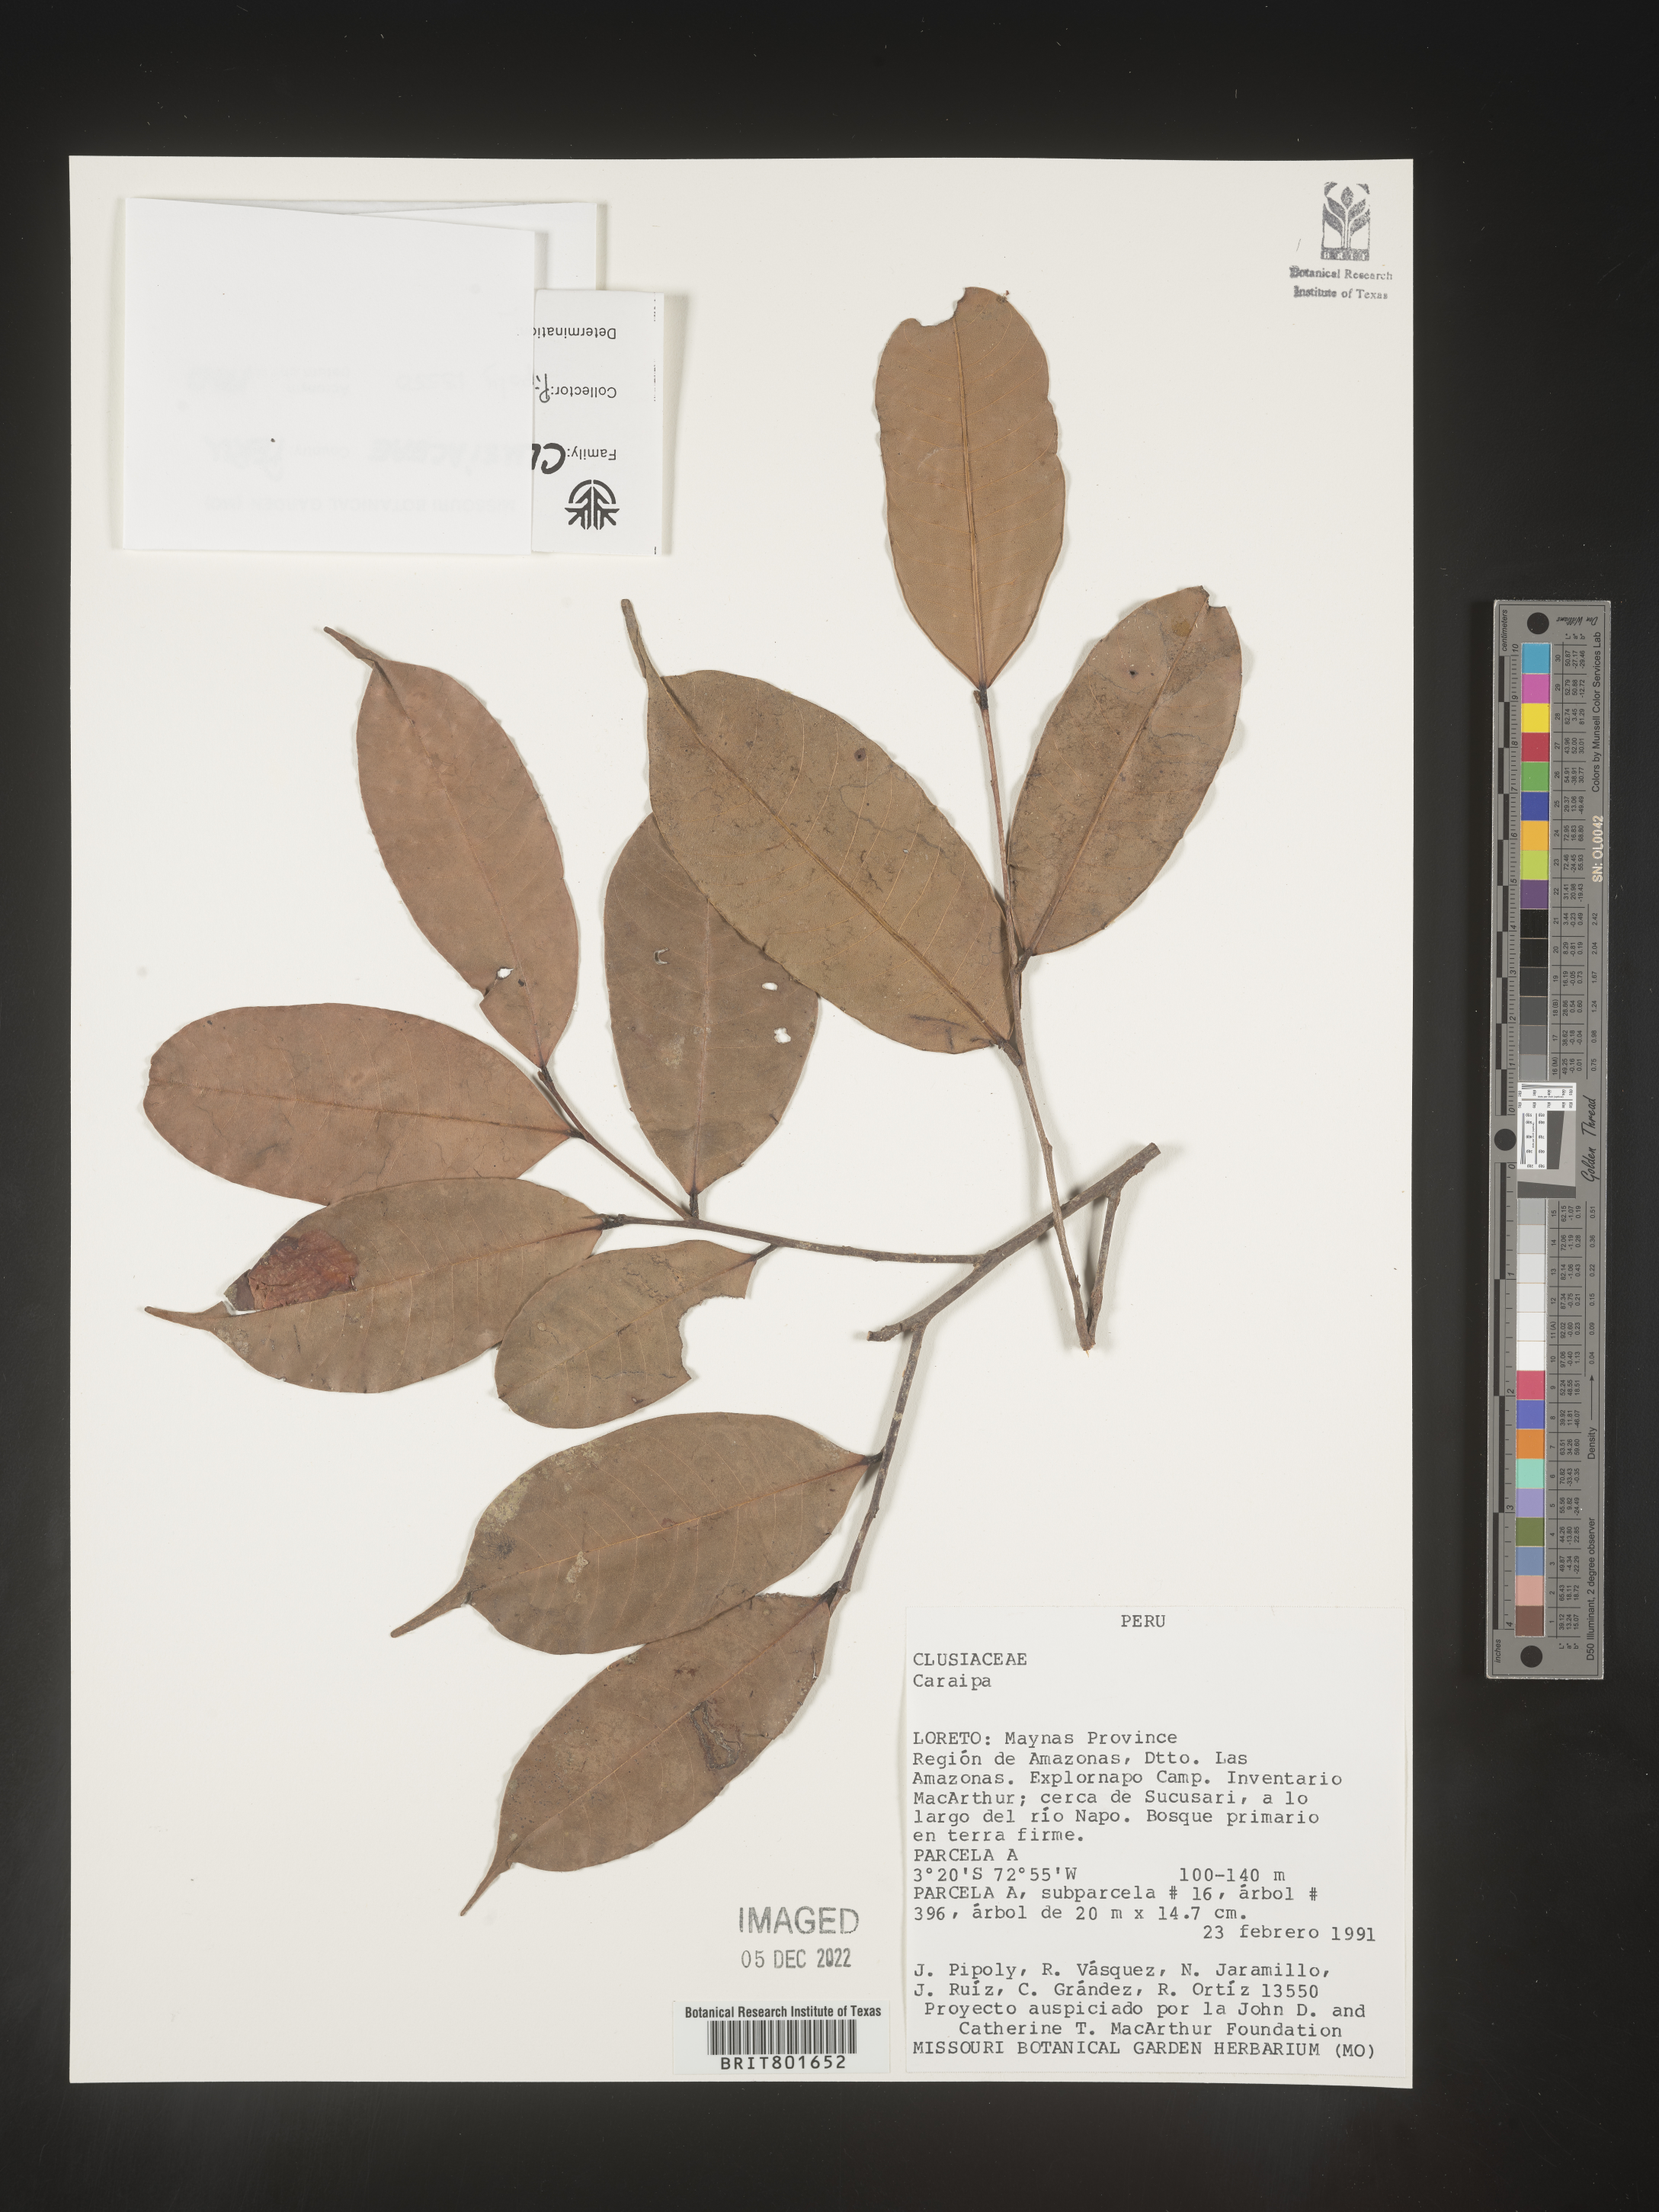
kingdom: Plantae
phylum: Tracheophyta
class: Magnoliopsida
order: Malpighiales
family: Calophyllaceae
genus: Caraipa
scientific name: Caraipa
